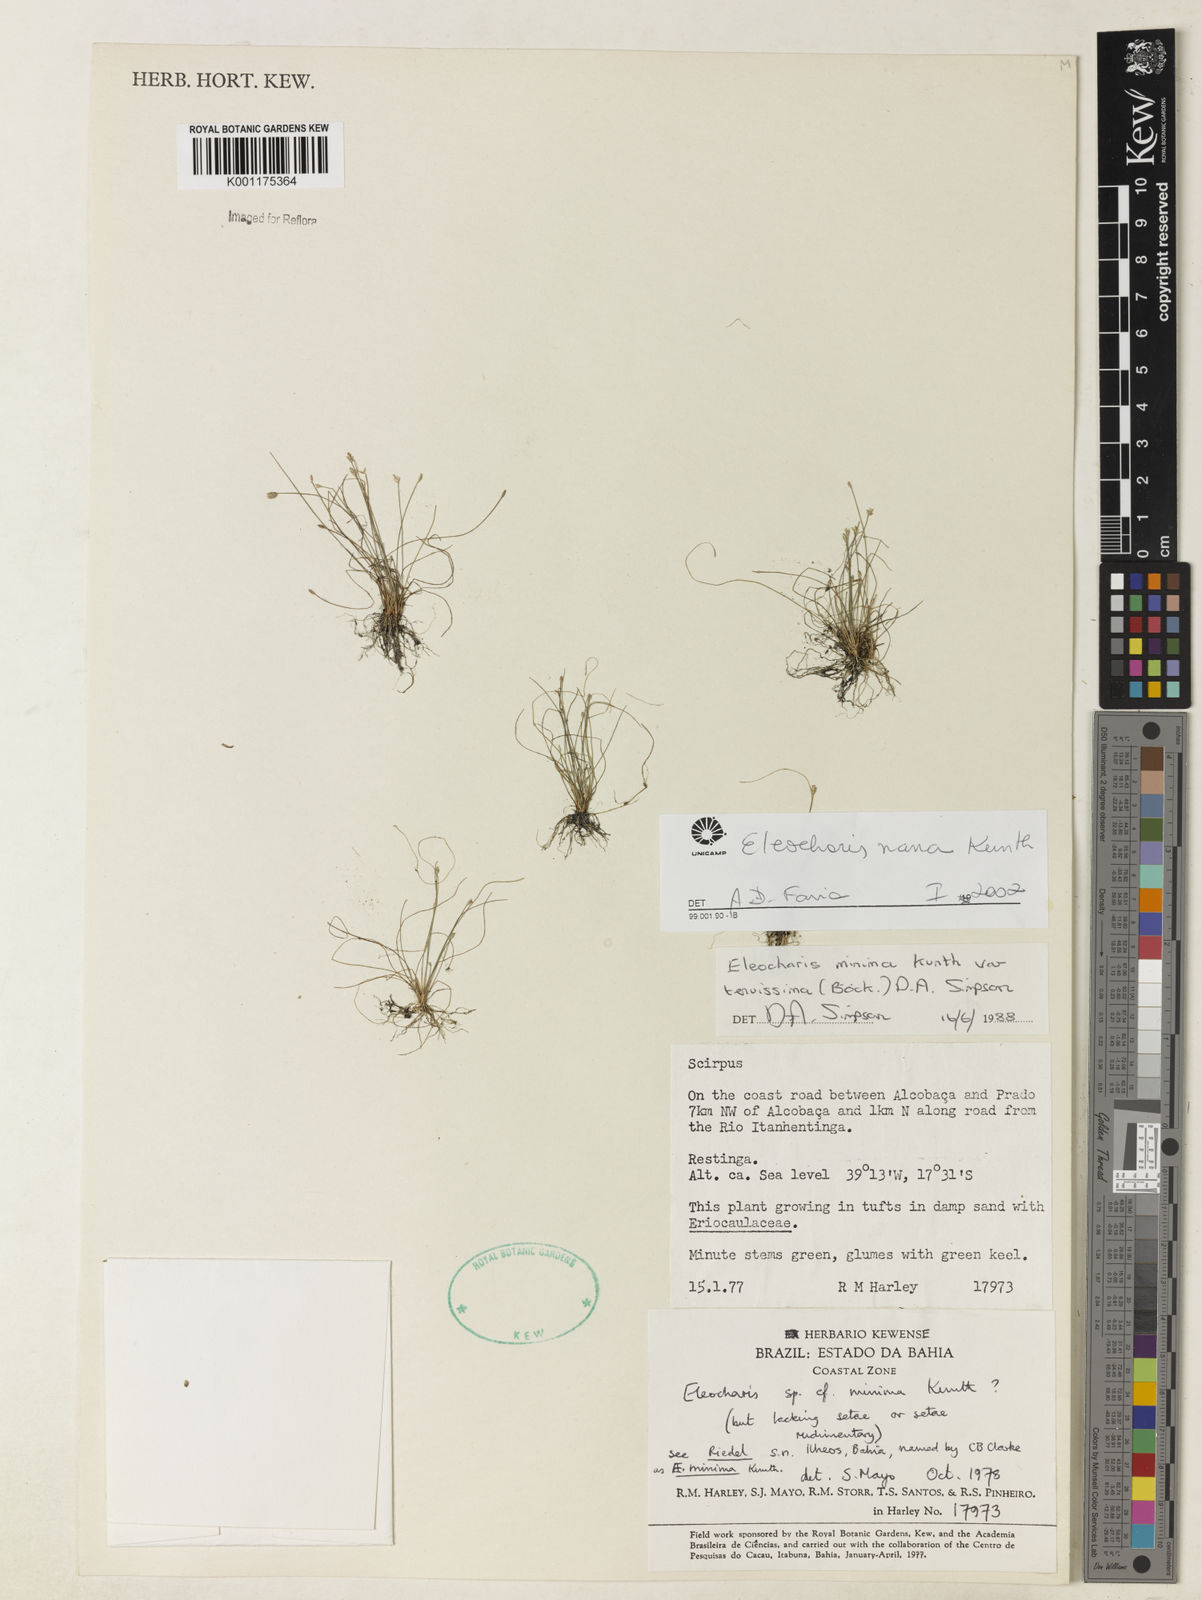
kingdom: Plantae
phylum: Tracheophyta
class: Liliopsida
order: Poales
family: Cyperaceae
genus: Eleocharis
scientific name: Eleocharis nana
